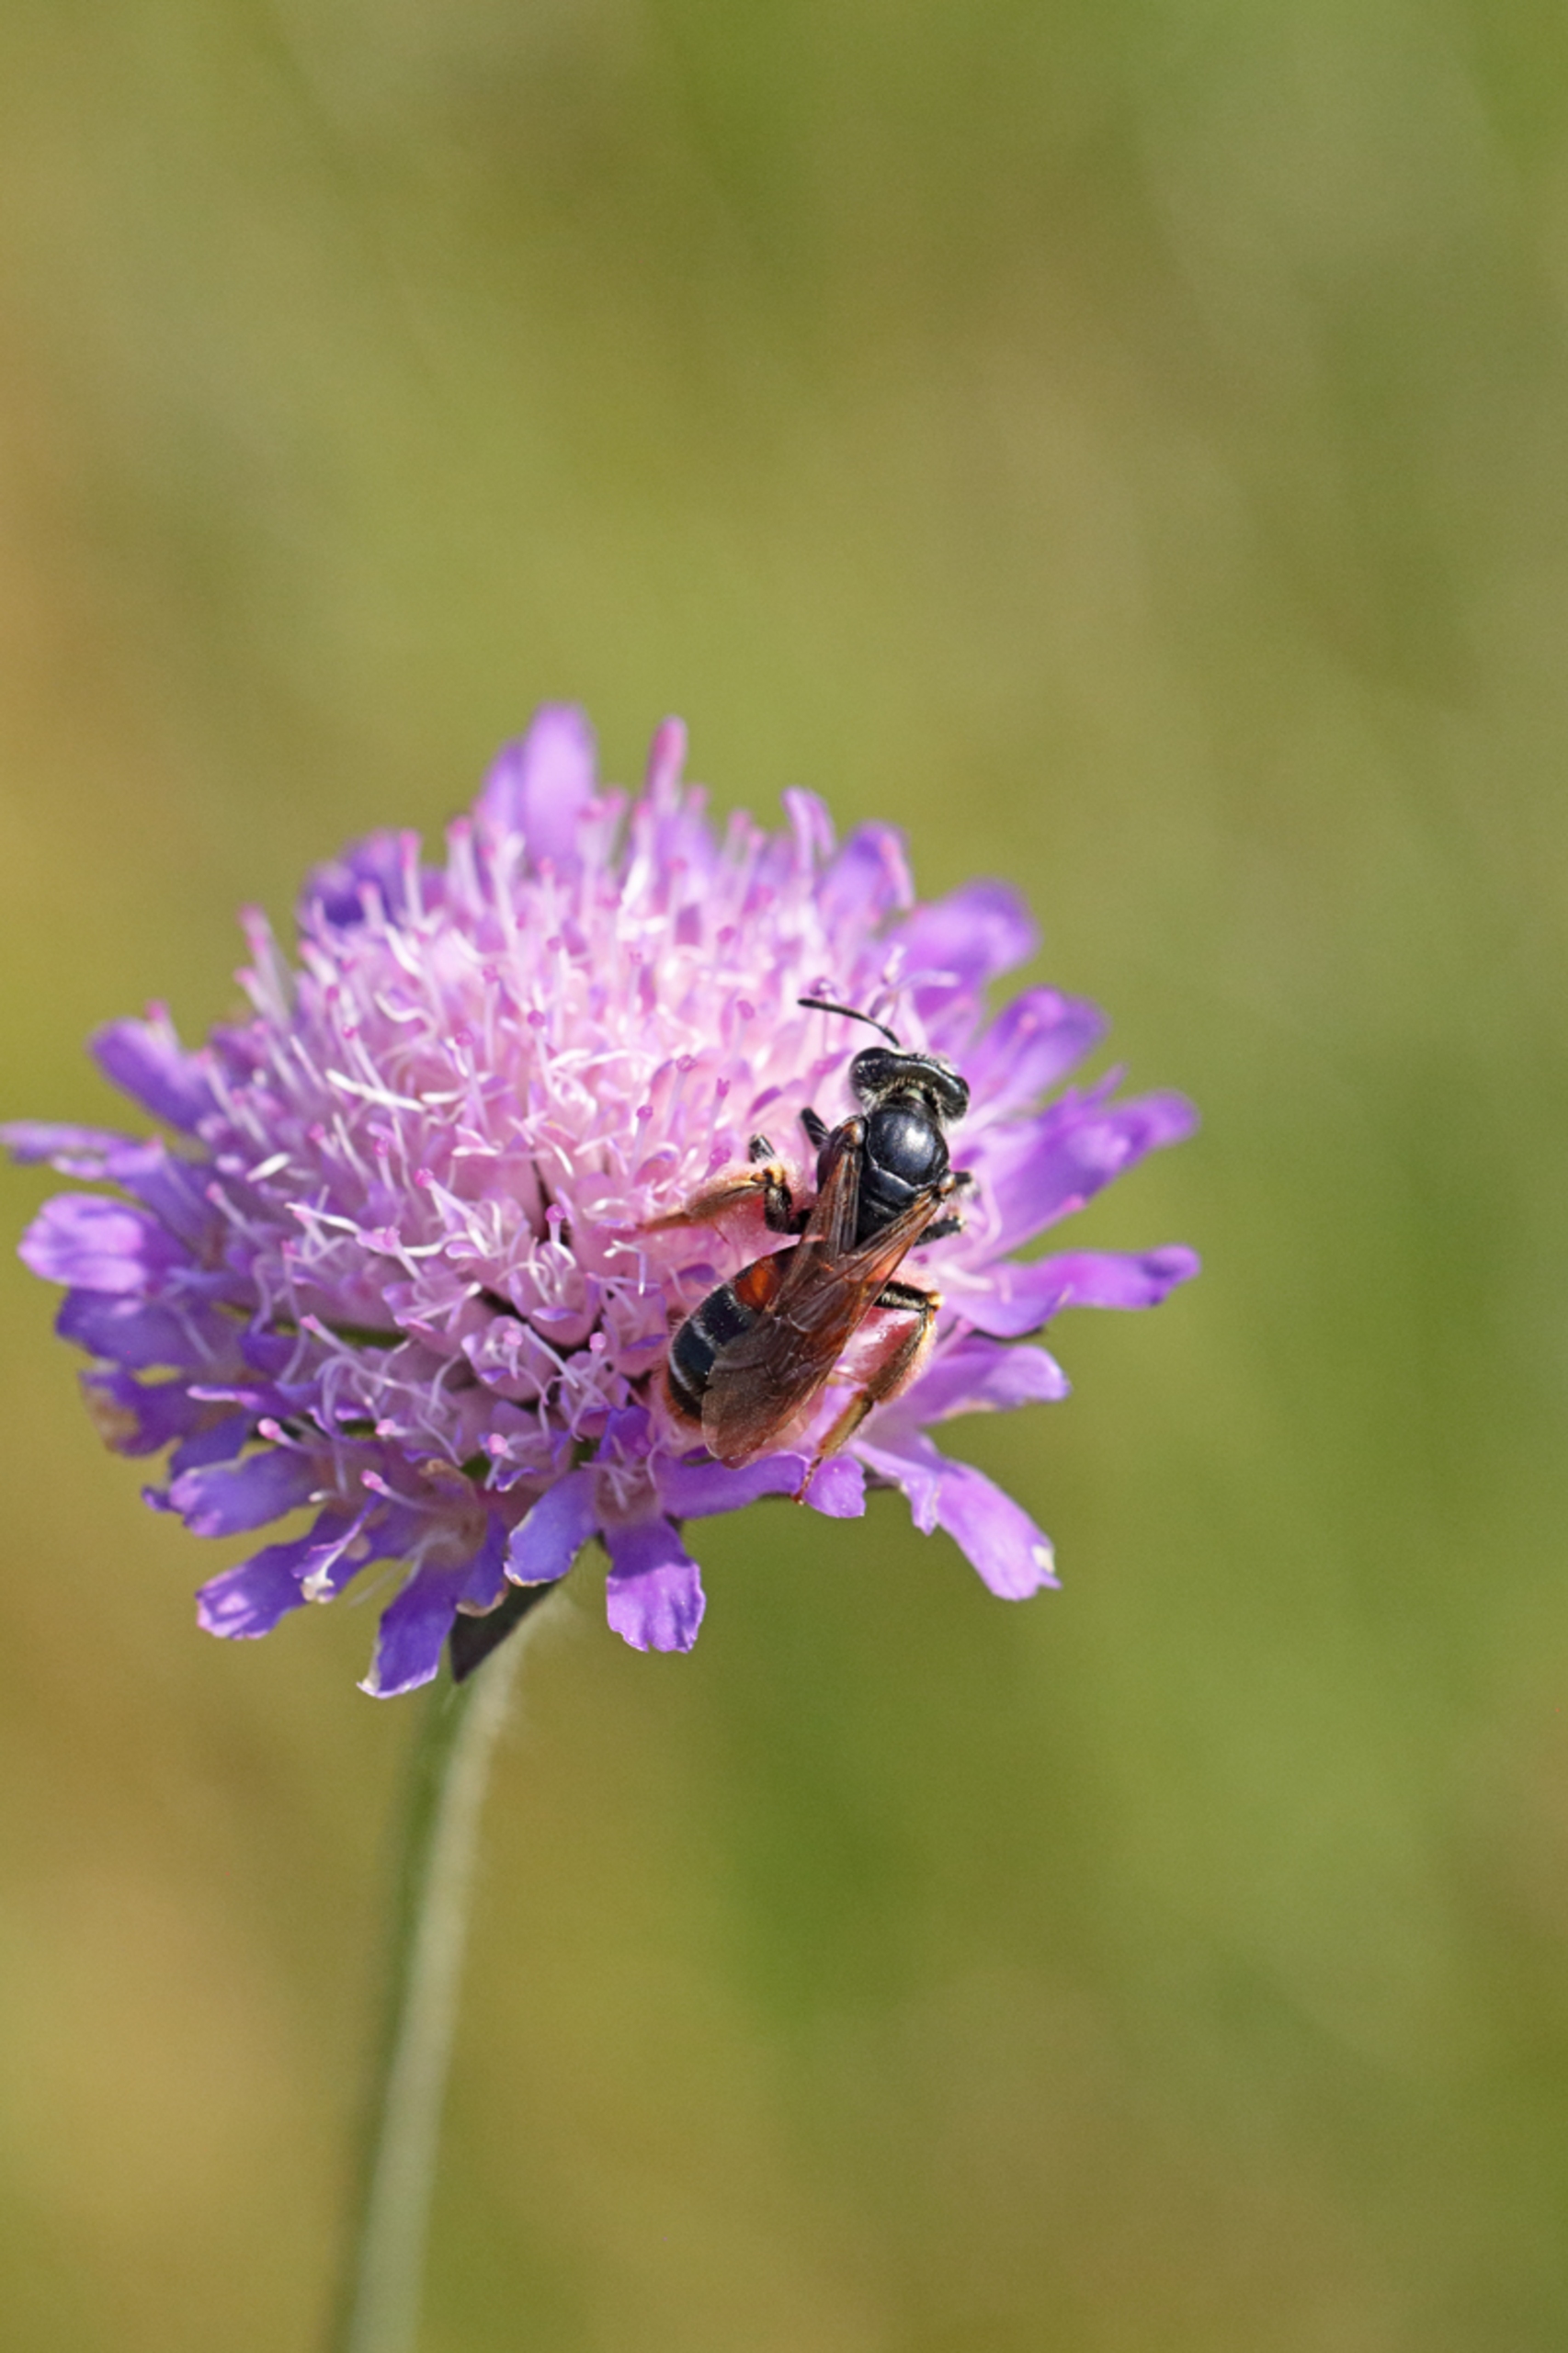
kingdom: Animalia
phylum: Arthropoda
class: Insecta
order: Hymenoptera
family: Andrenidae
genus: Andrena
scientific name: Andrena hattorfiana
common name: Blåhatjordbi
